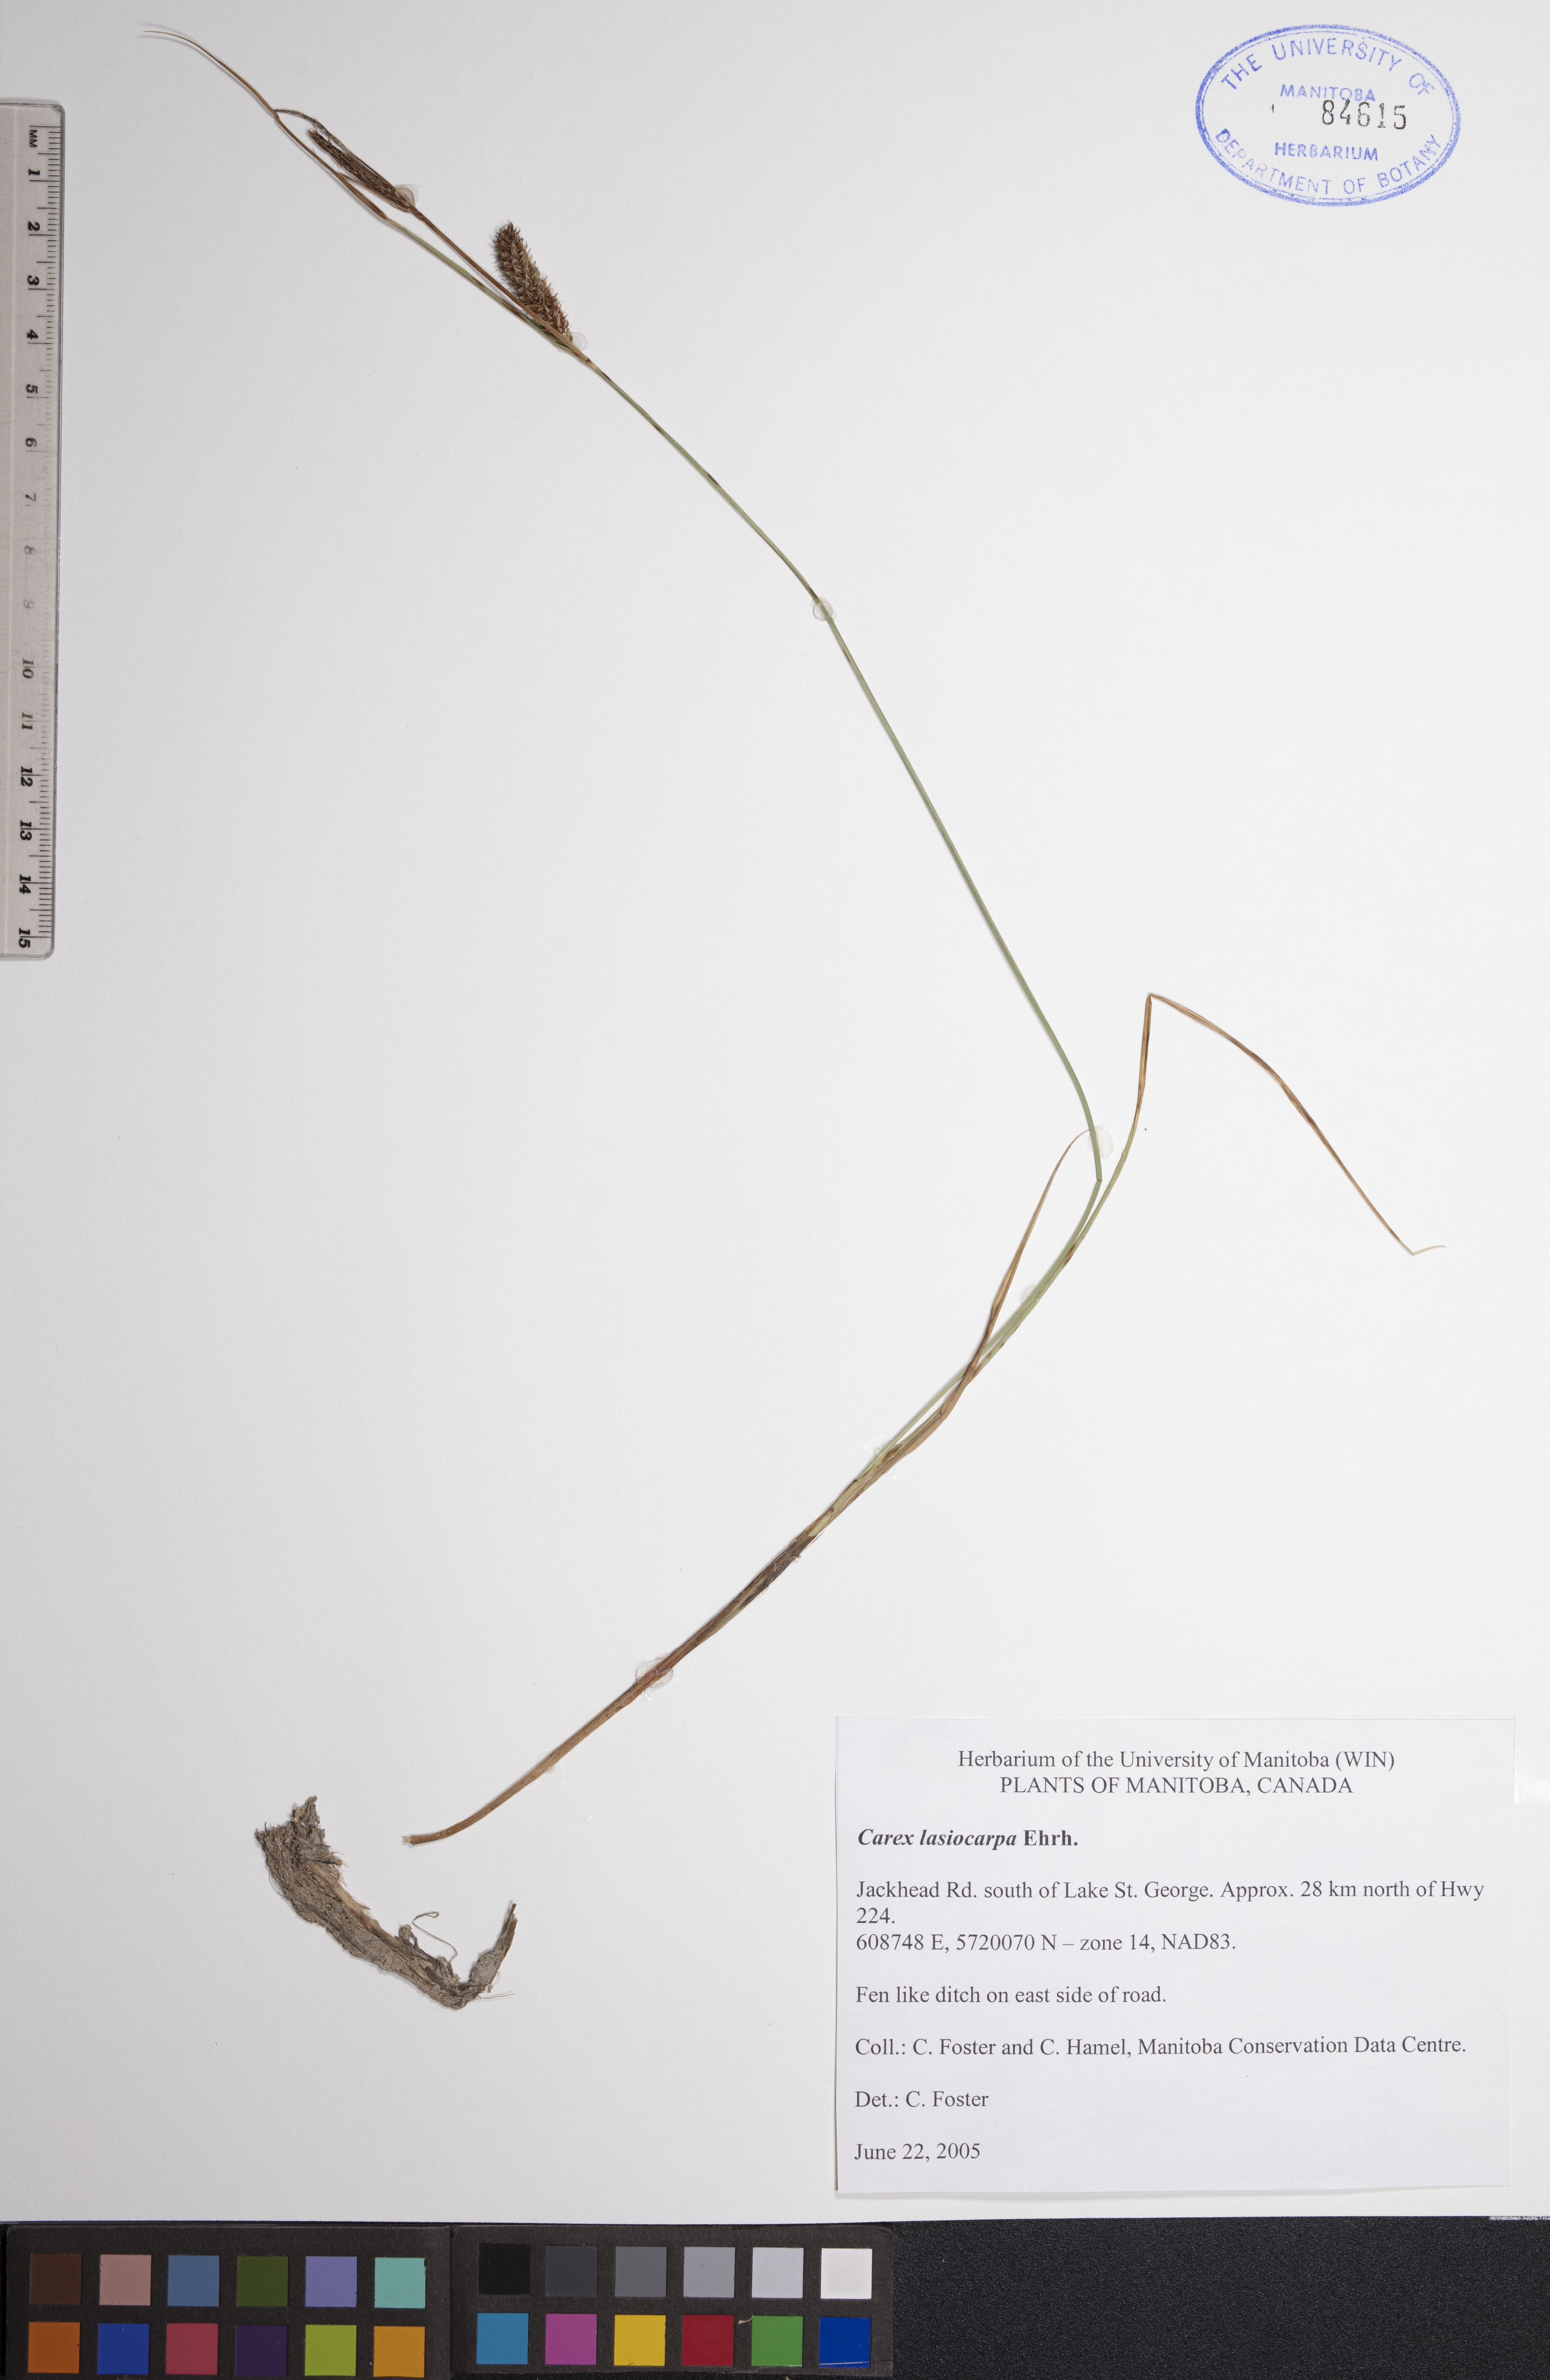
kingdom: Plantae
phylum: Tracheophyta
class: Liliopsida
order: Poales
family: Cyperaceae
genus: Carex
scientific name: Carex lasiocarpa
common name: Slender sedge
